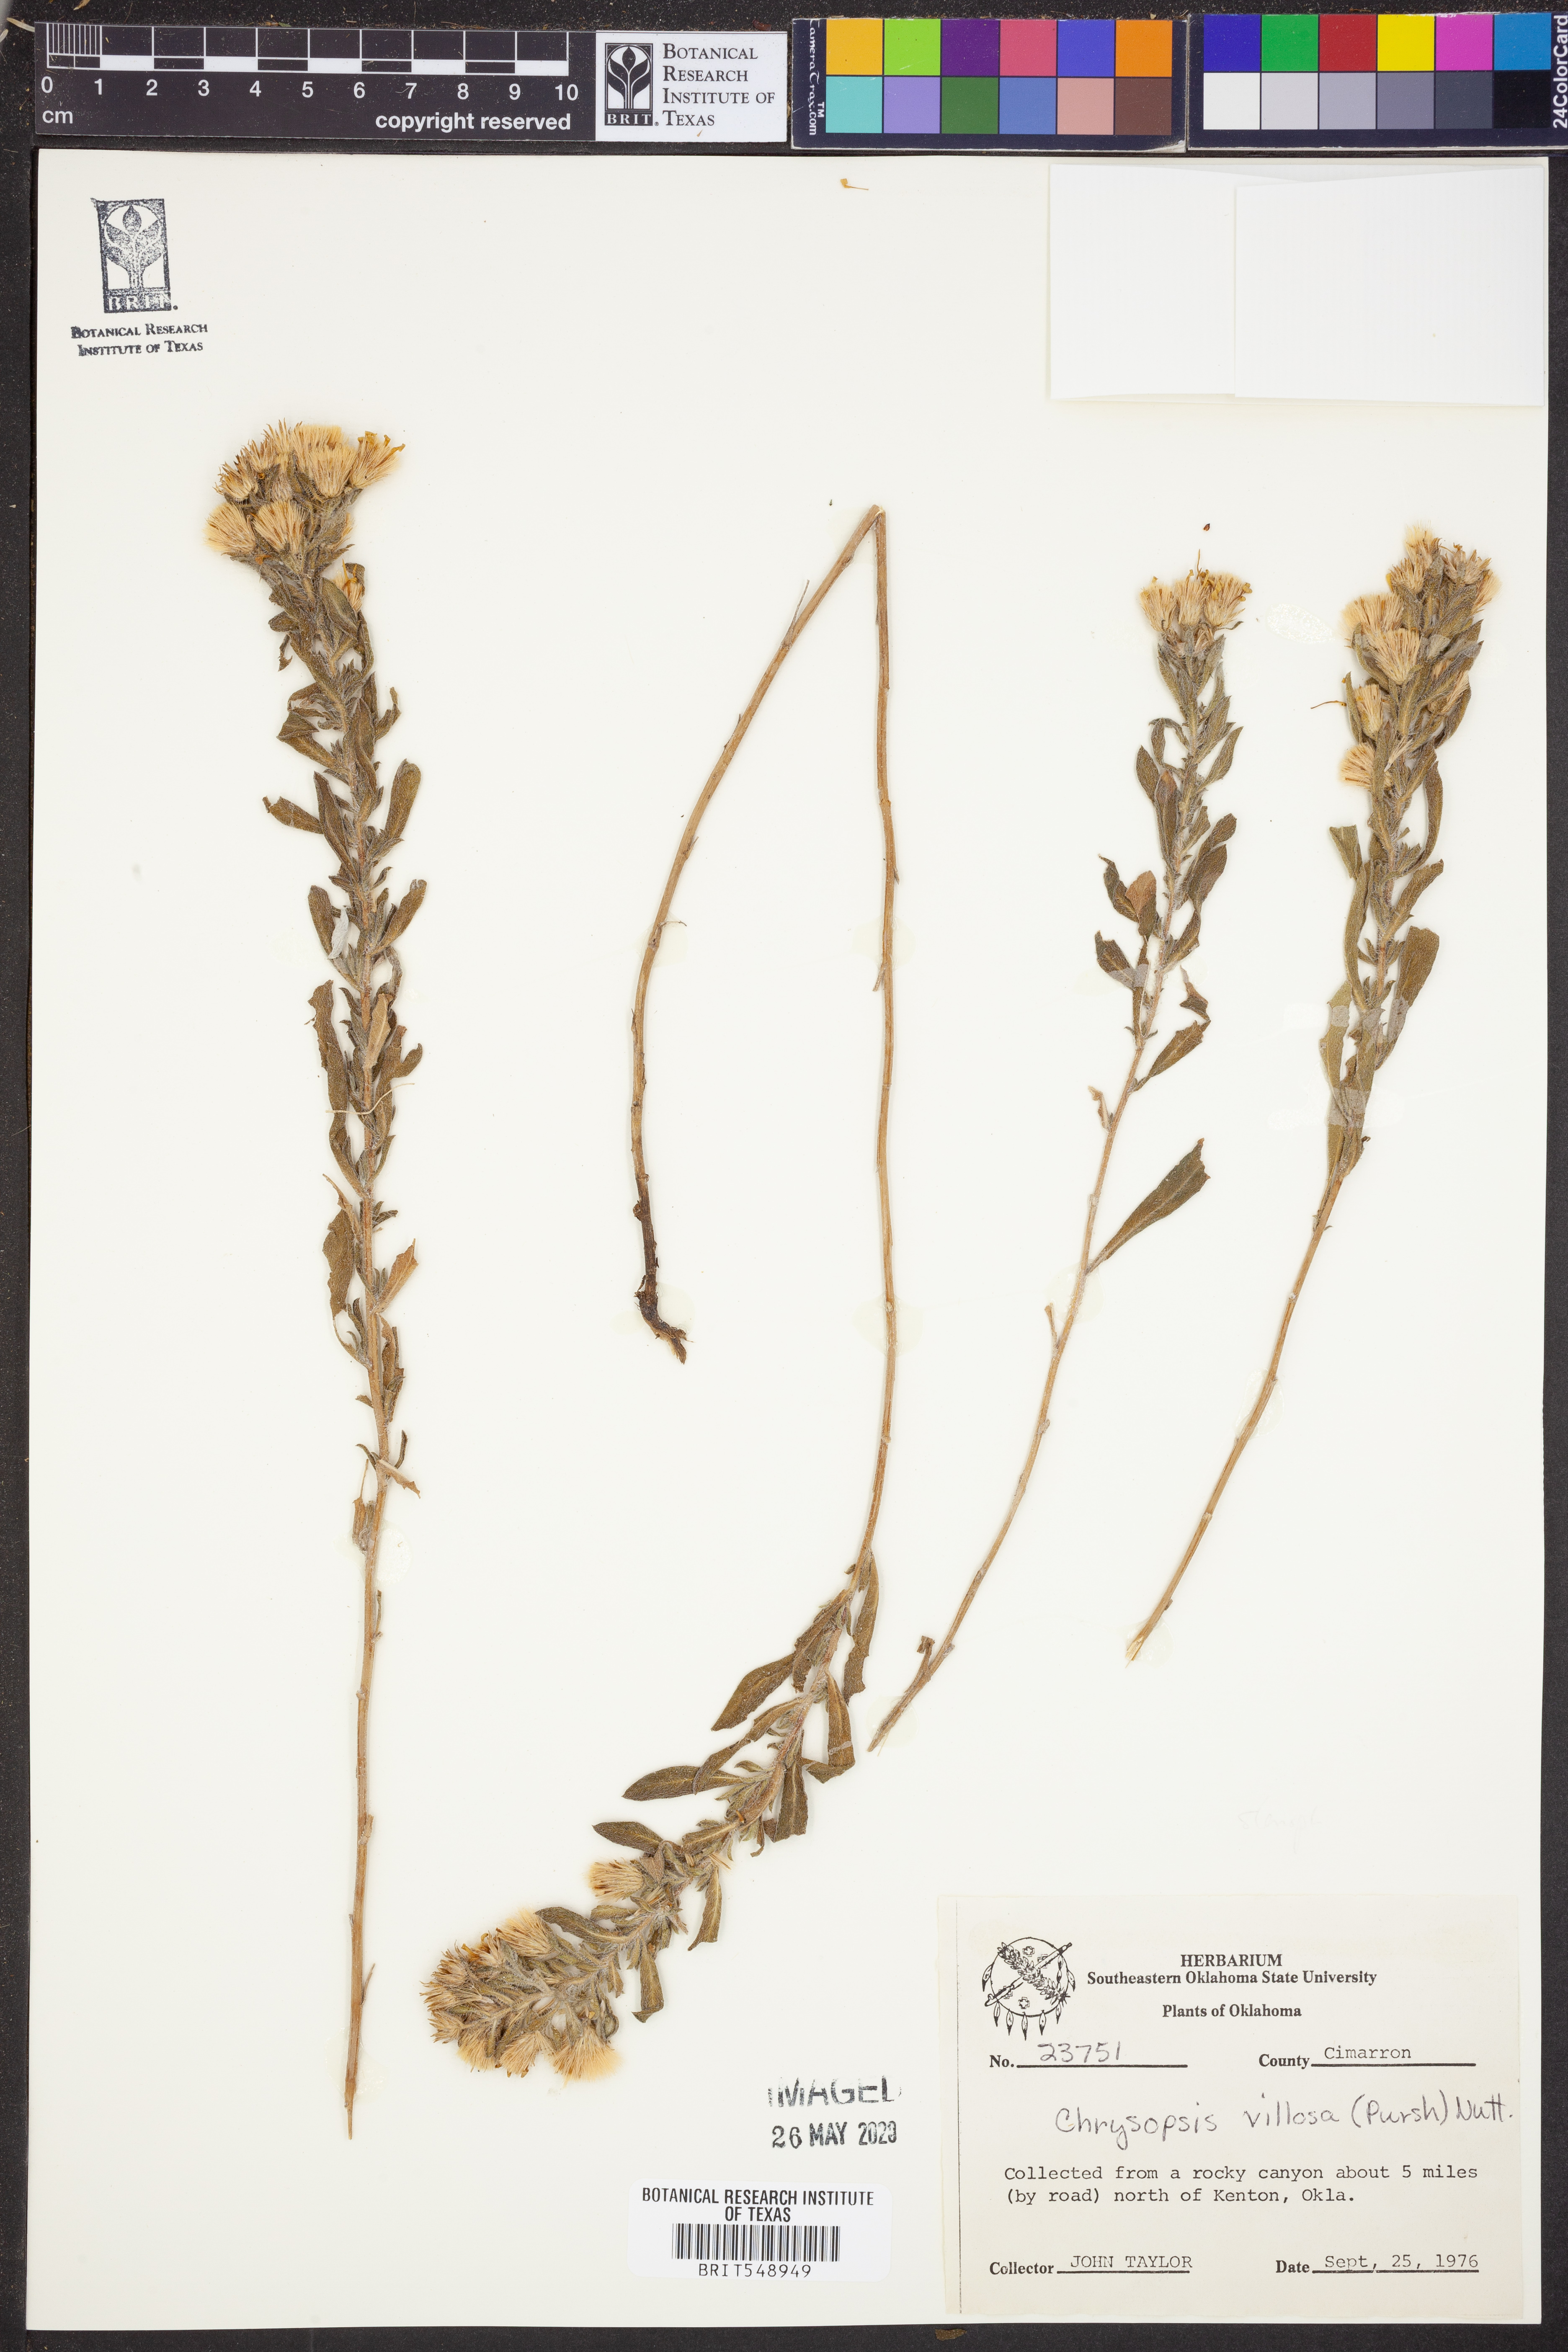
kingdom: Plantae
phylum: Tracheophyta
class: Magnoliopsida
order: Asterales
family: Asteraceae
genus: Heterotheca
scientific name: Heterotheca villosa
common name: Hairy false goldenaster
